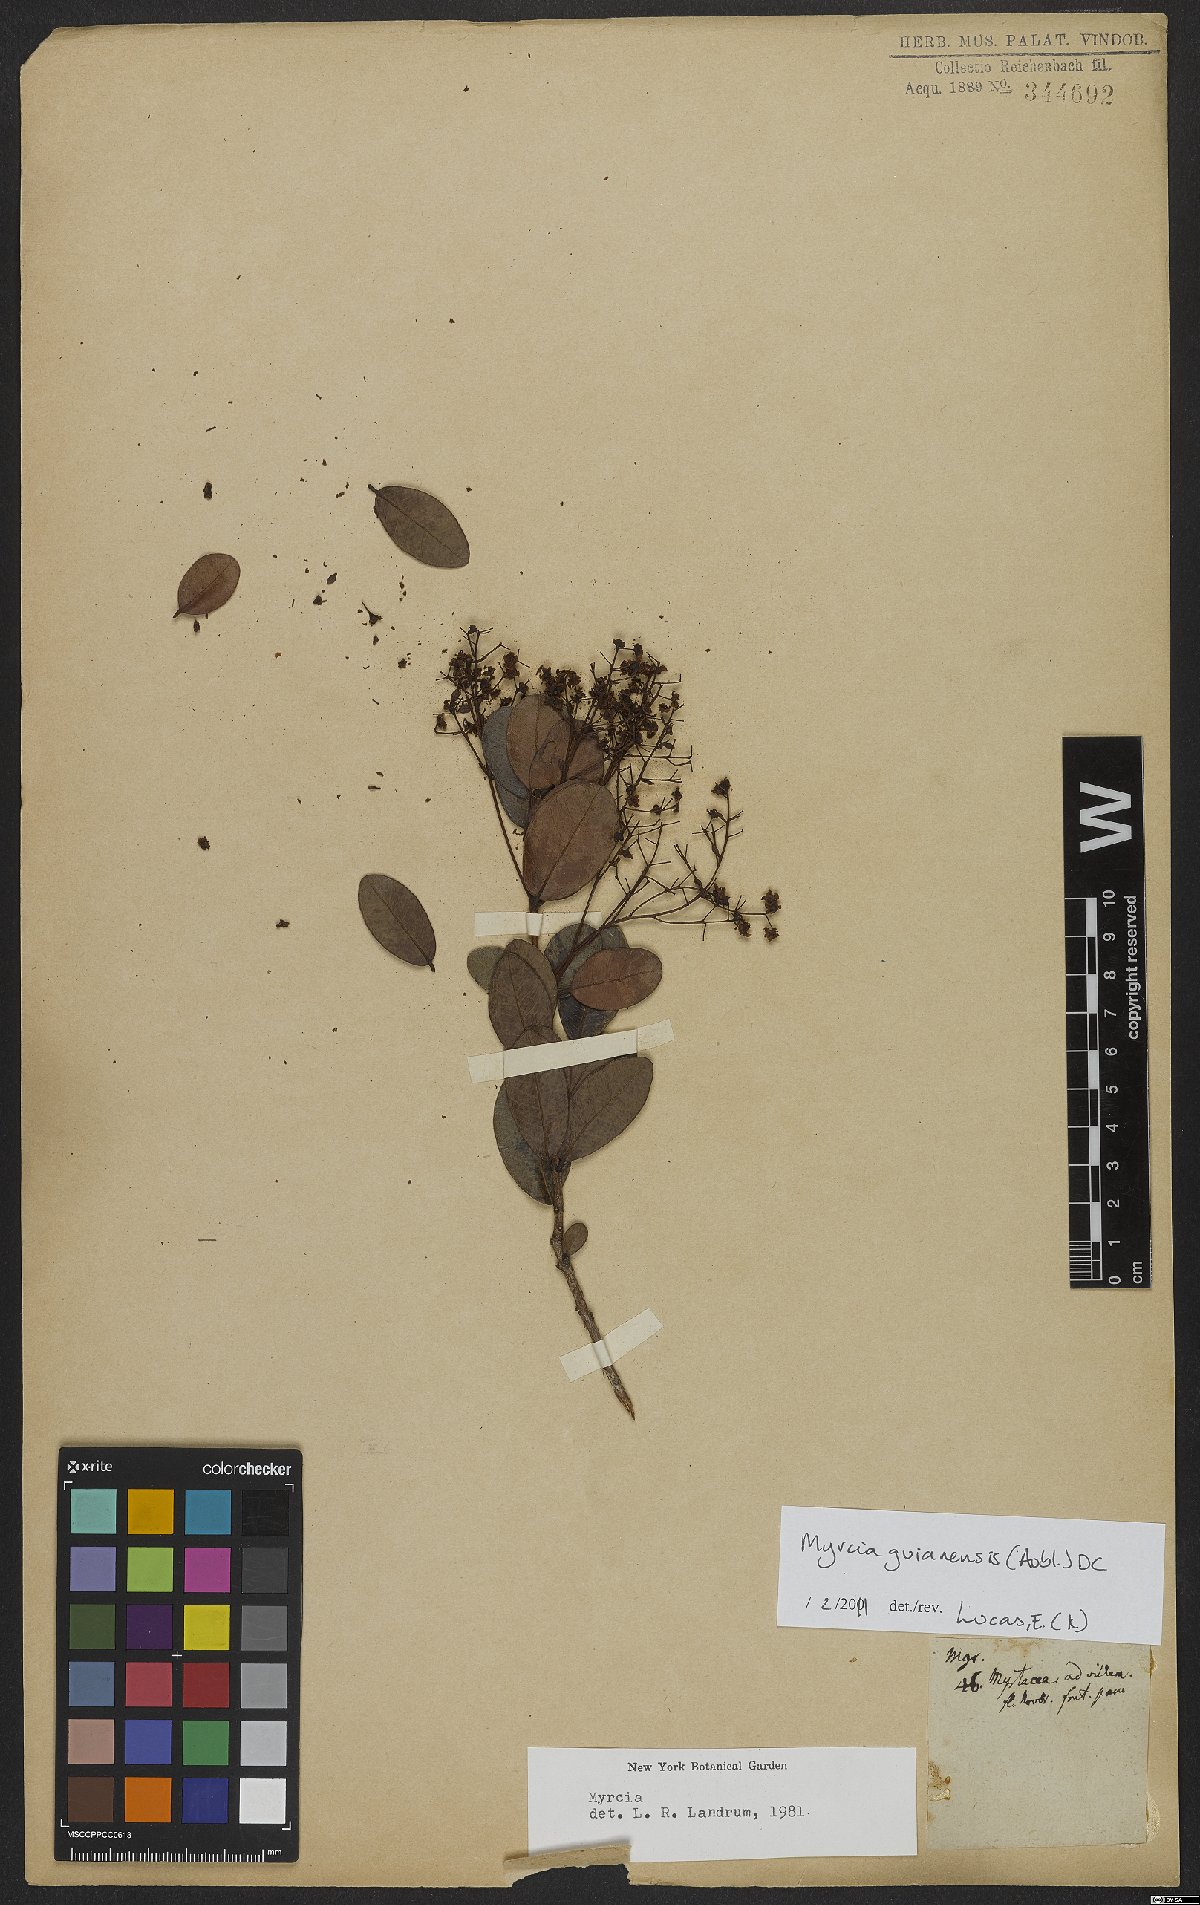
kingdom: Plantae
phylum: Tracheophyta
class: Magnoliopsida
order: Myrtales
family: Myrtaceae
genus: Myrcia
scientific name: Myrcia guianensis
